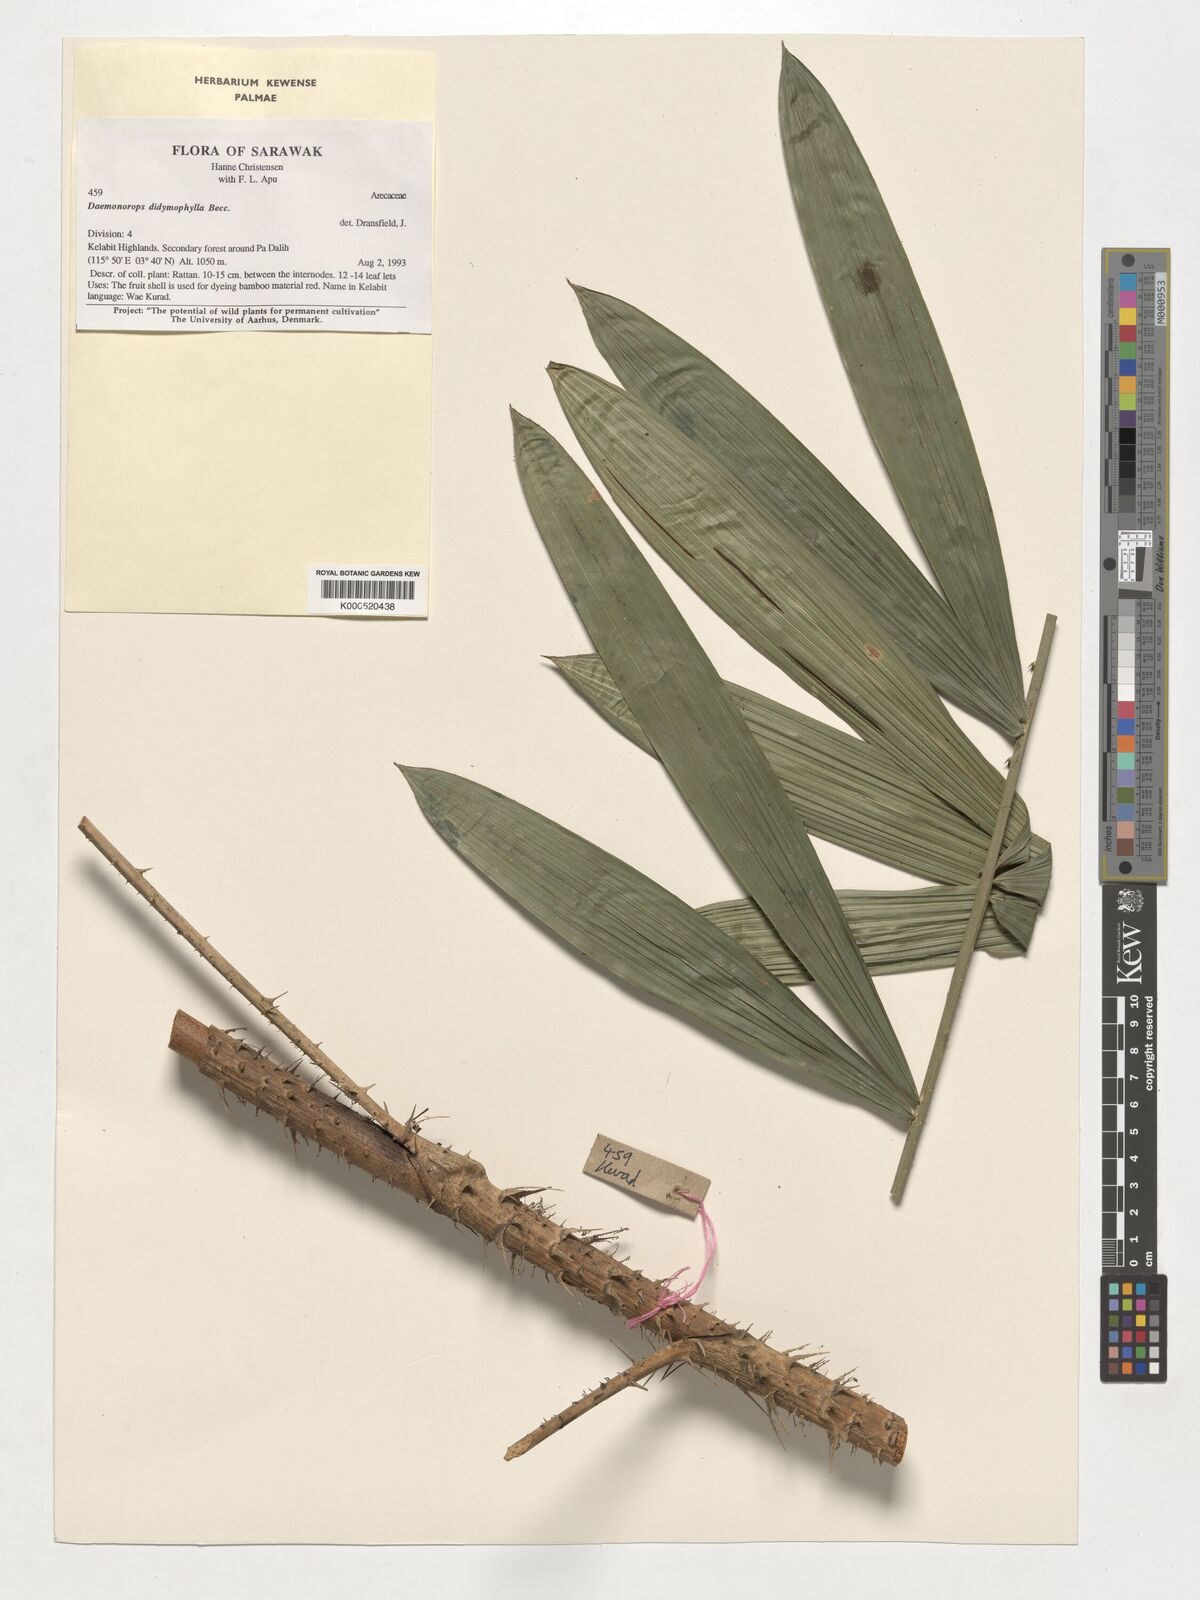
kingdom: Plantae
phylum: Tracheophyta
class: Liliopsida
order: Arecales
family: Arecaceae
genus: Calamus
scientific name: Calamus gracilipes
